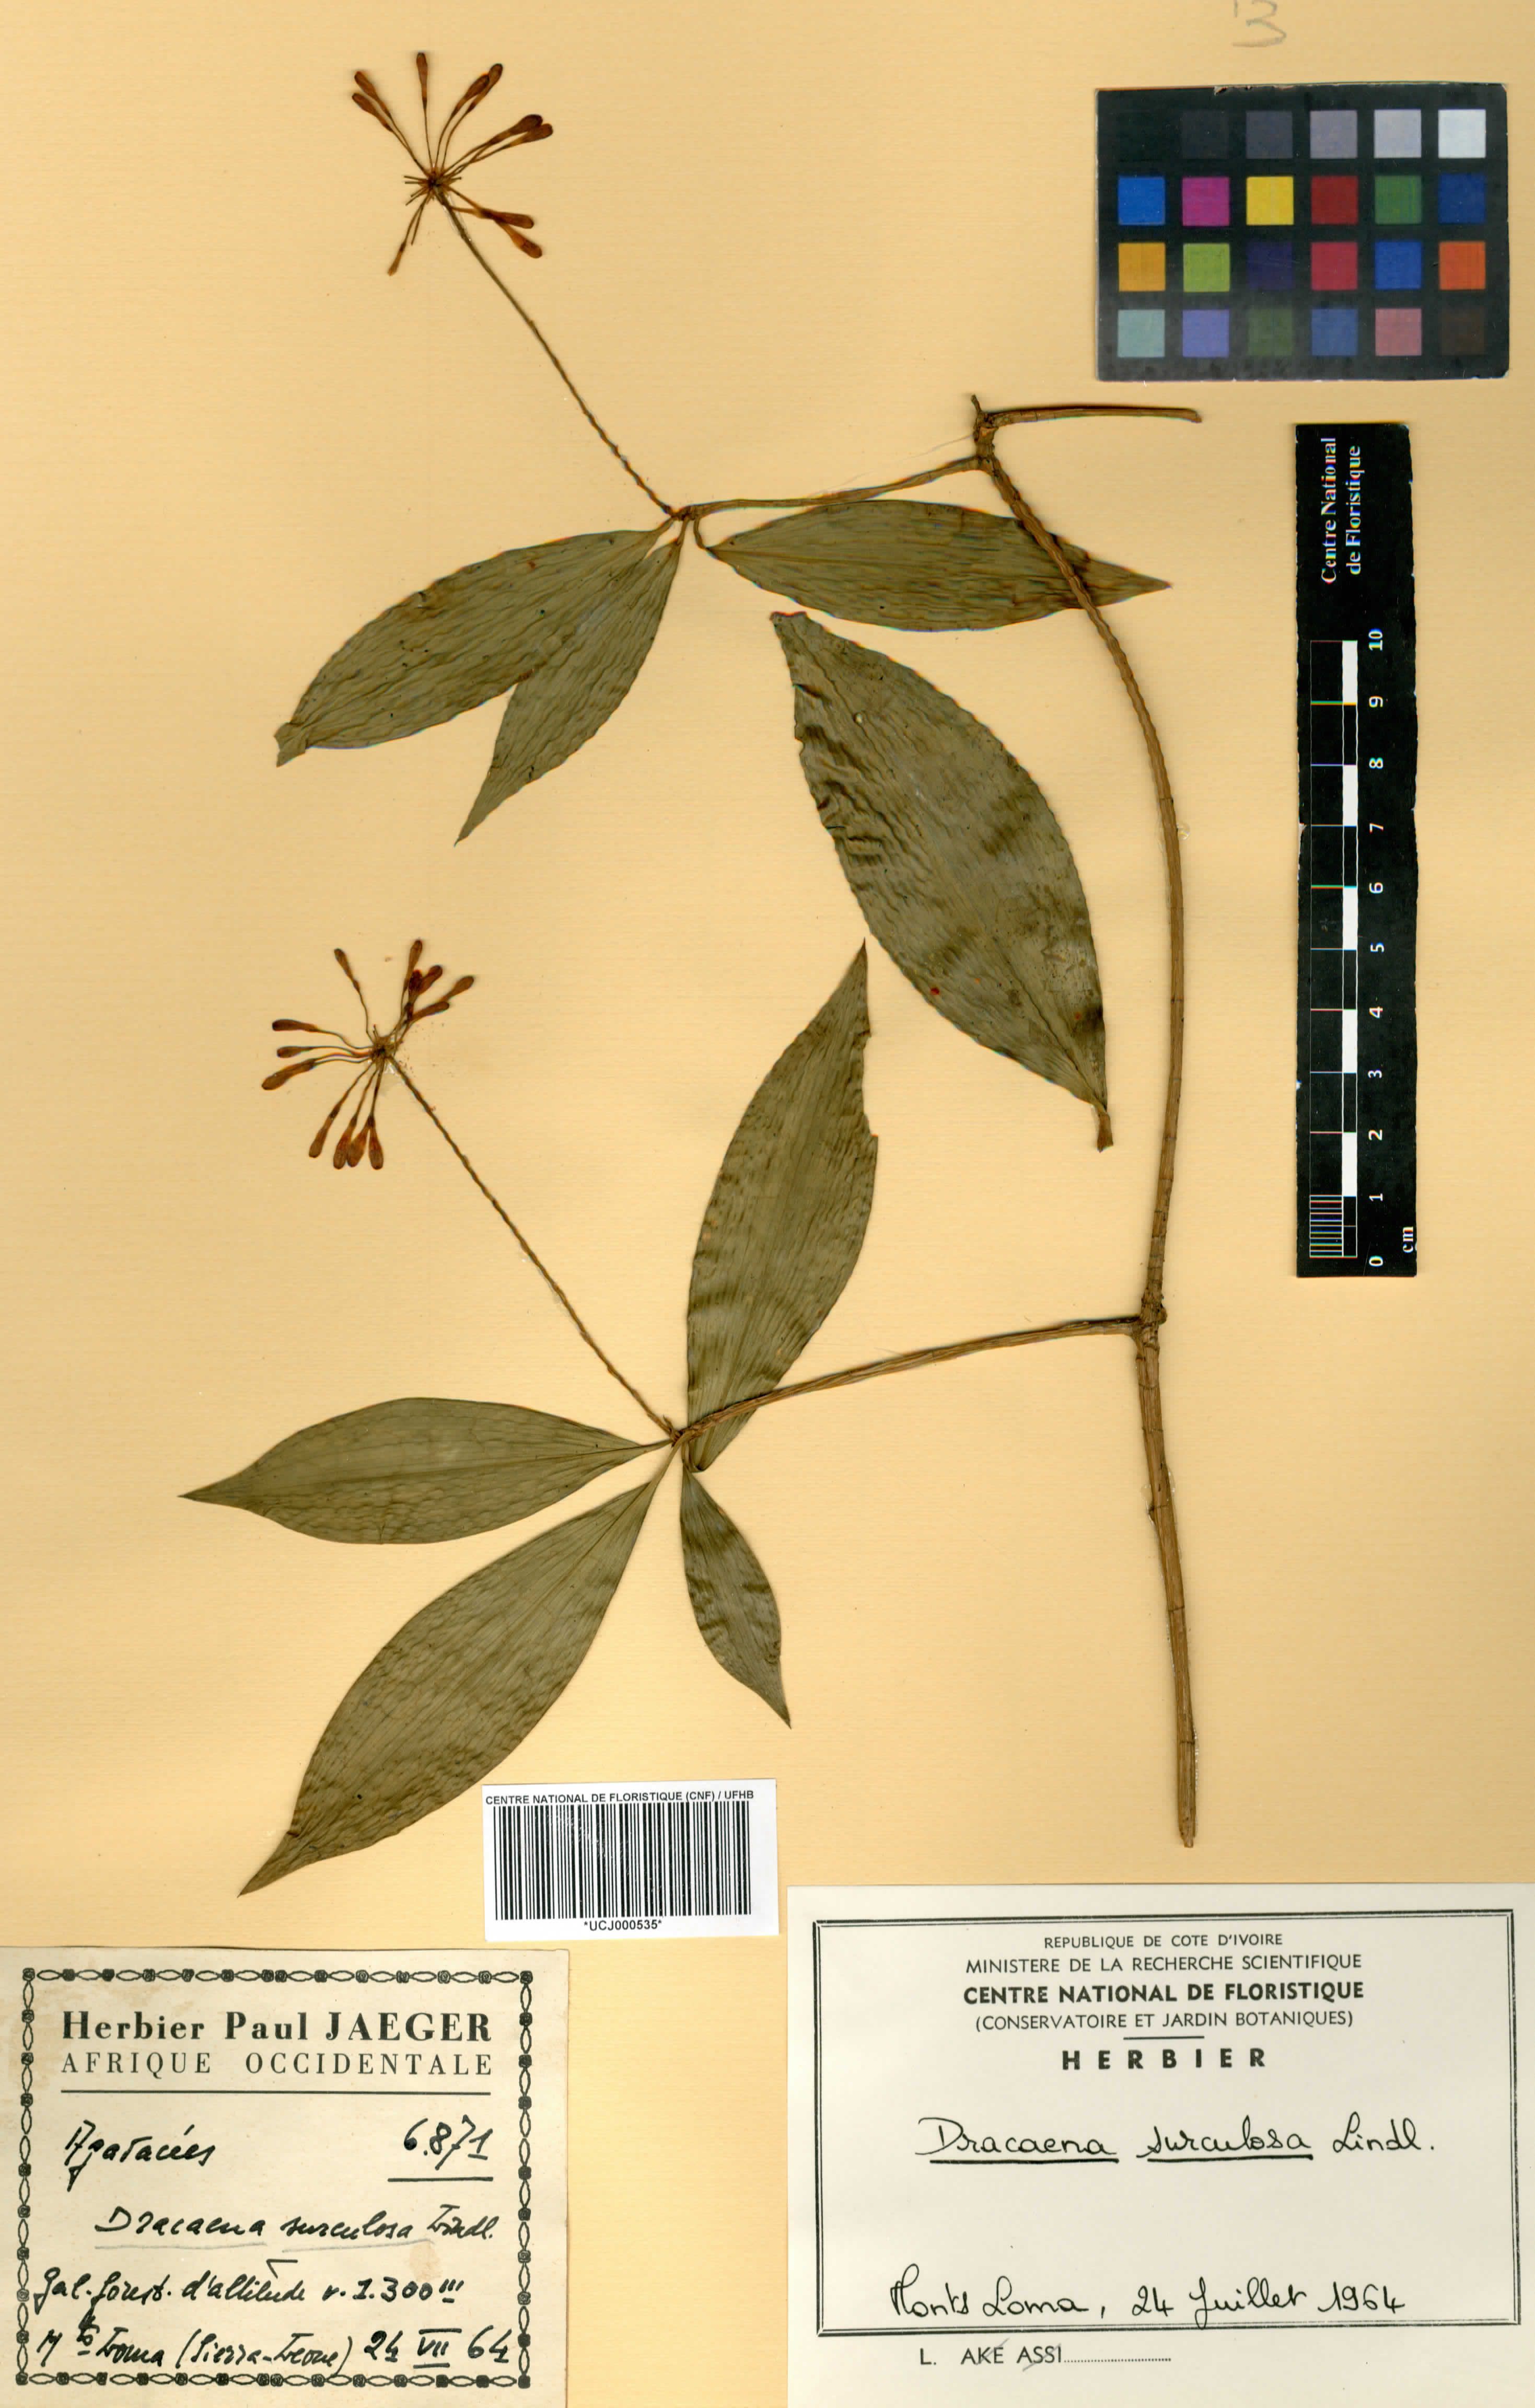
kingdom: Plantae
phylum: Tracheophyta
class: Liliopsida
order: Asparagales
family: Asparagaceae
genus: Dracaena
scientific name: Dracaena surculosa
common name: Spotted dracaena
